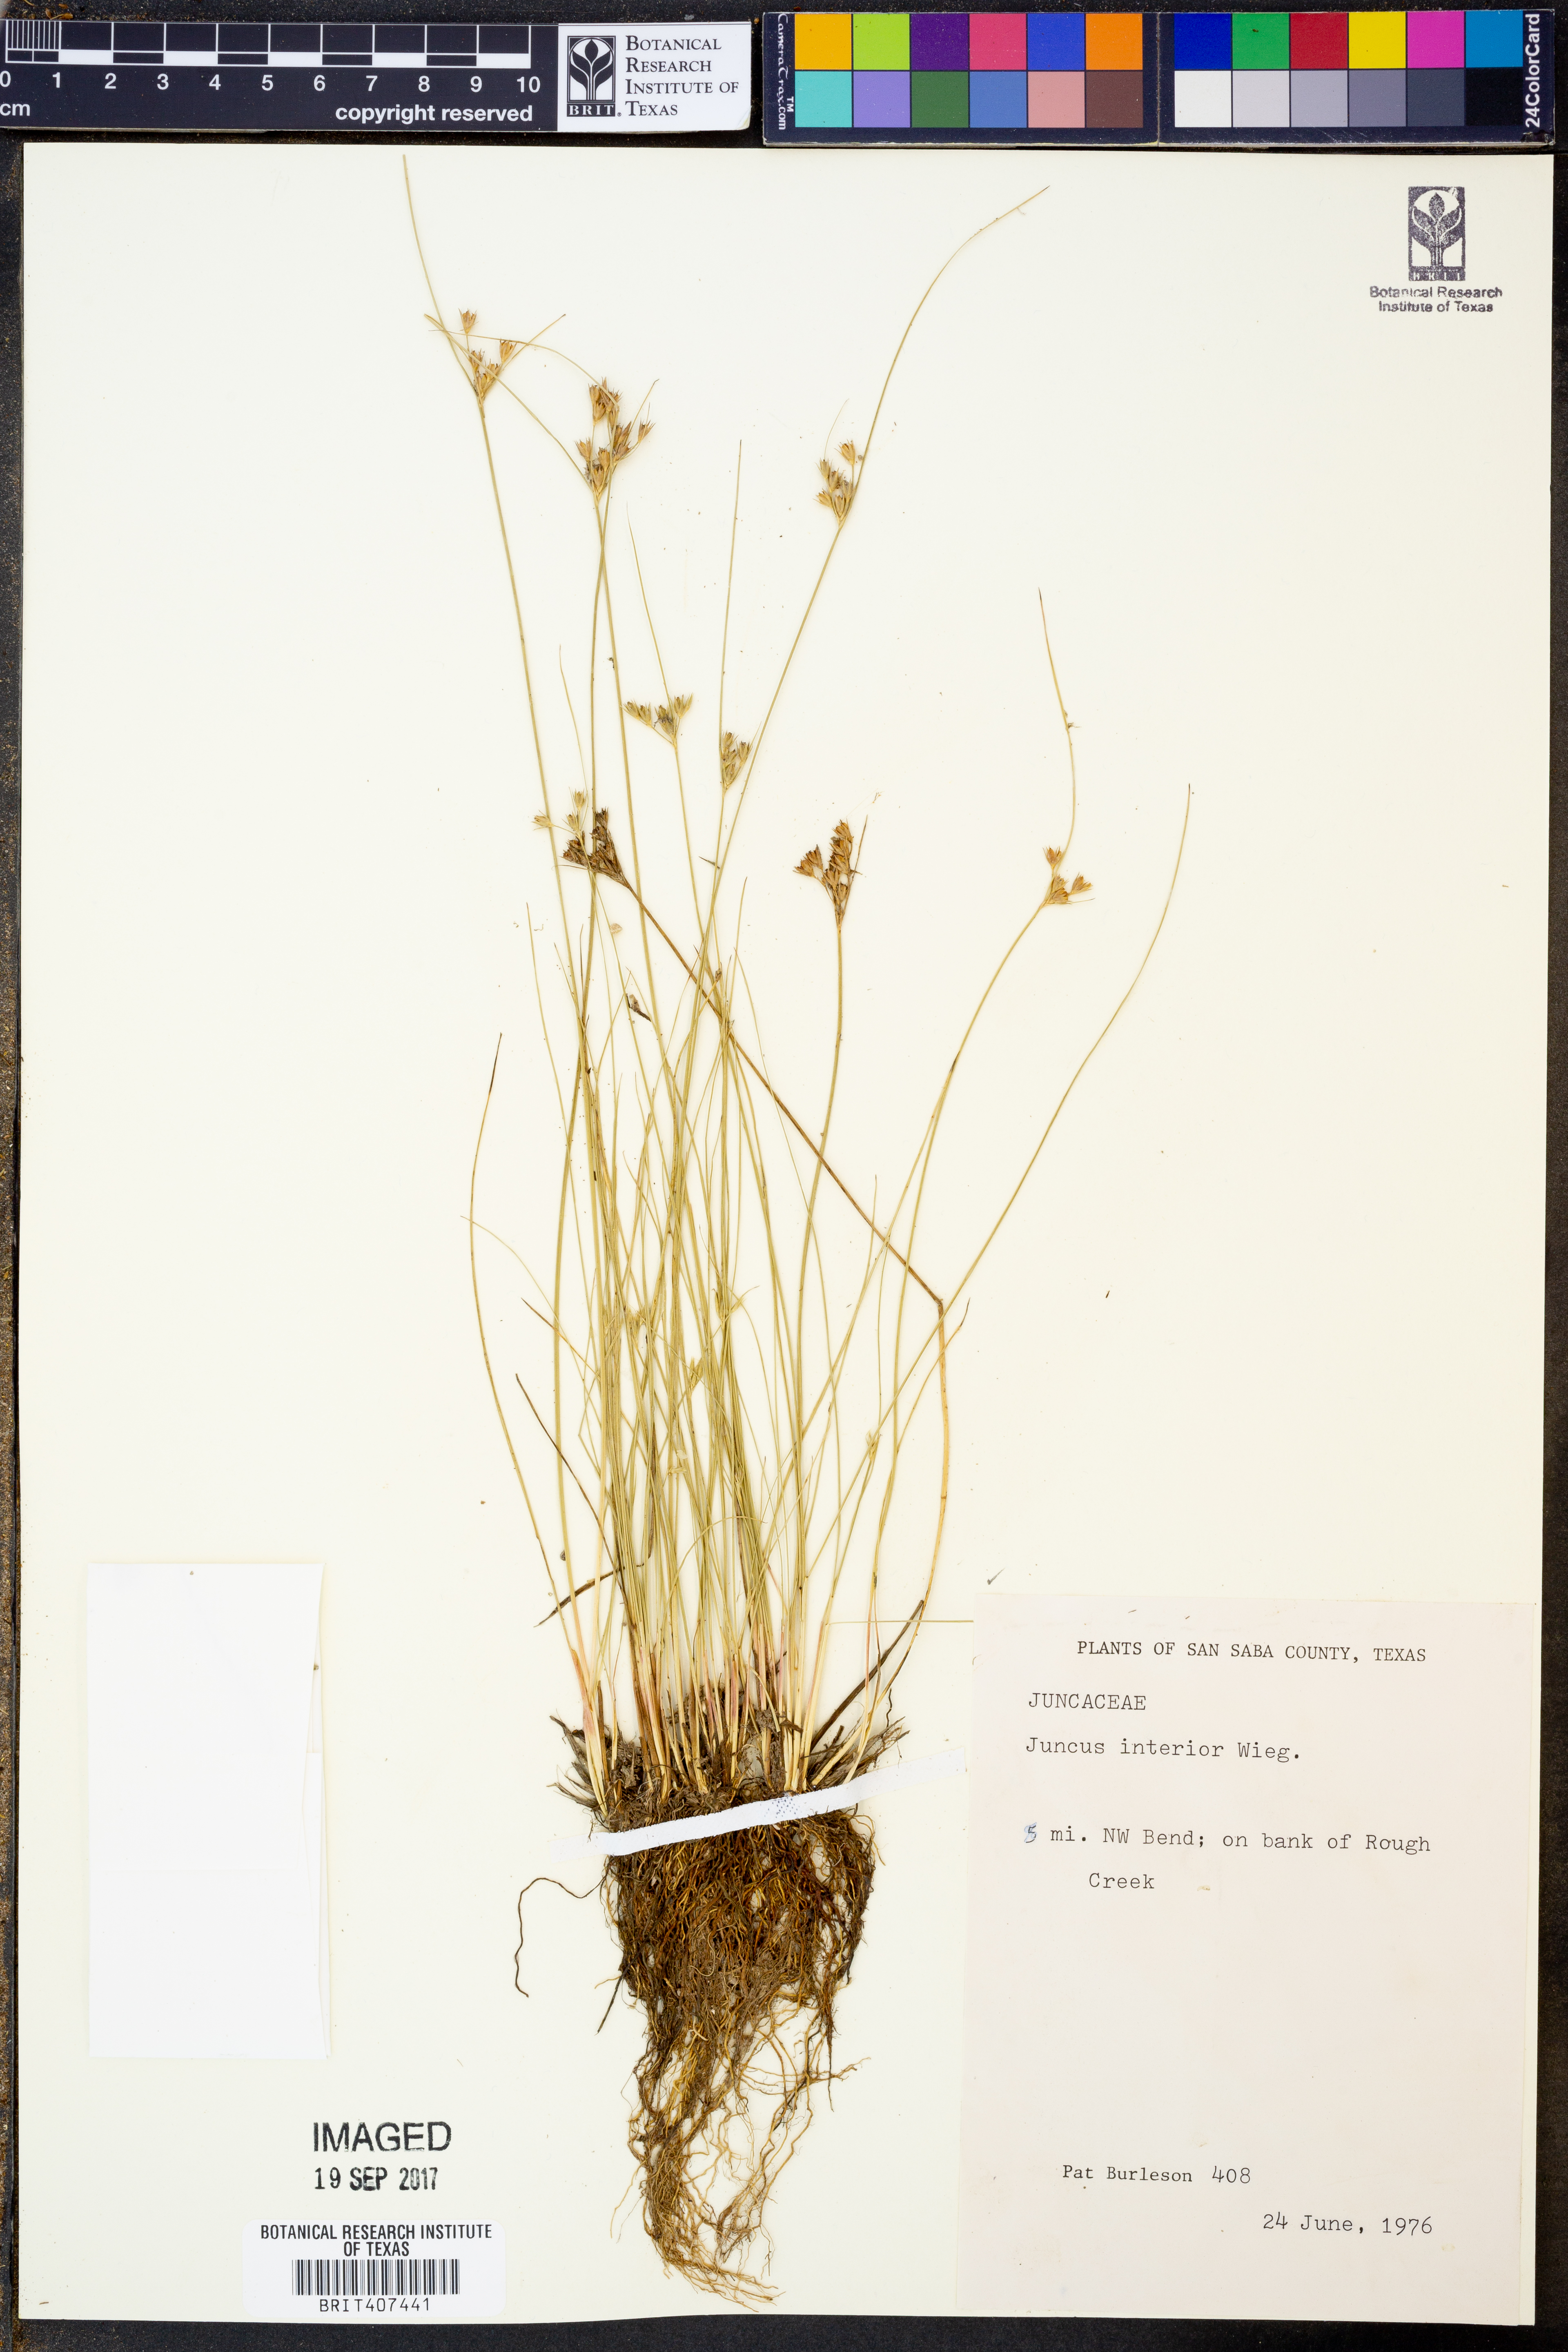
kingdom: Plantae
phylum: Tracheophyta
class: Liliopsida
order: Poales
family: Juncaceae
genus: Juncus
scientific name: Juncus interior
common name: Interior rush
